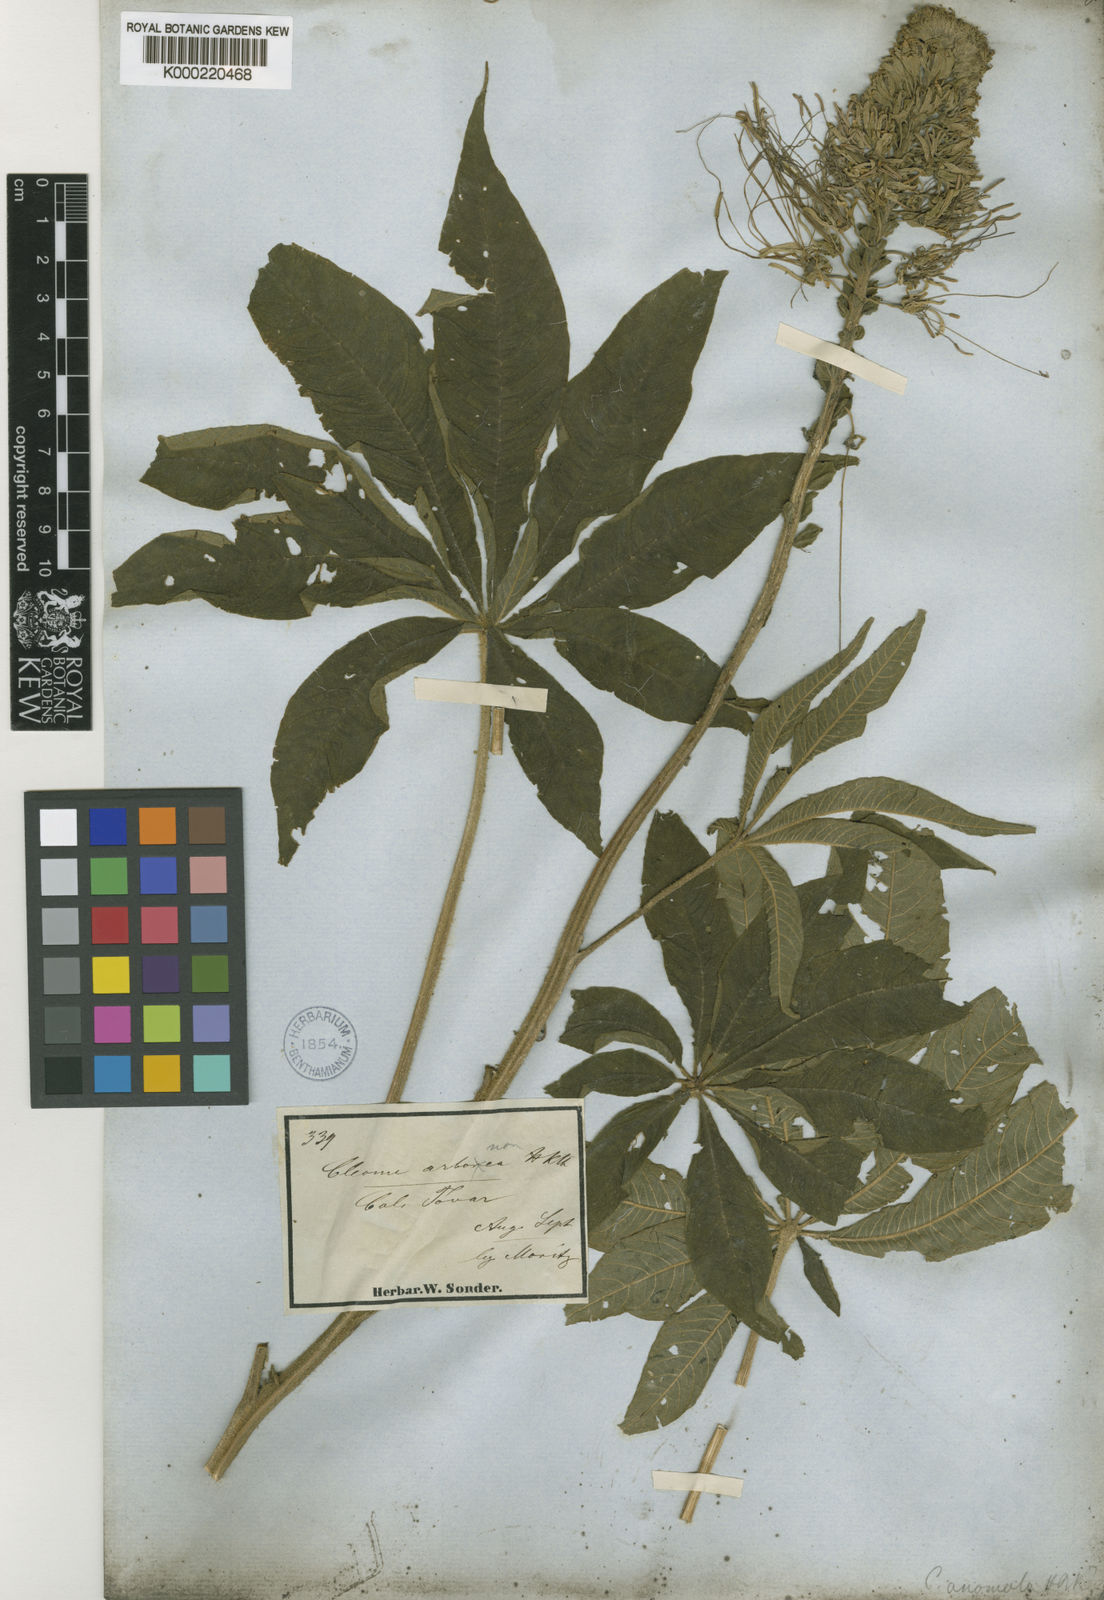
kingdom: Plantae
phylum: Tracheophyta
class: Magnoliopsida
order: Brassicales
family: Cleomaceae
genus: Andinocleome
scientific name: Andinocleome moritziana
